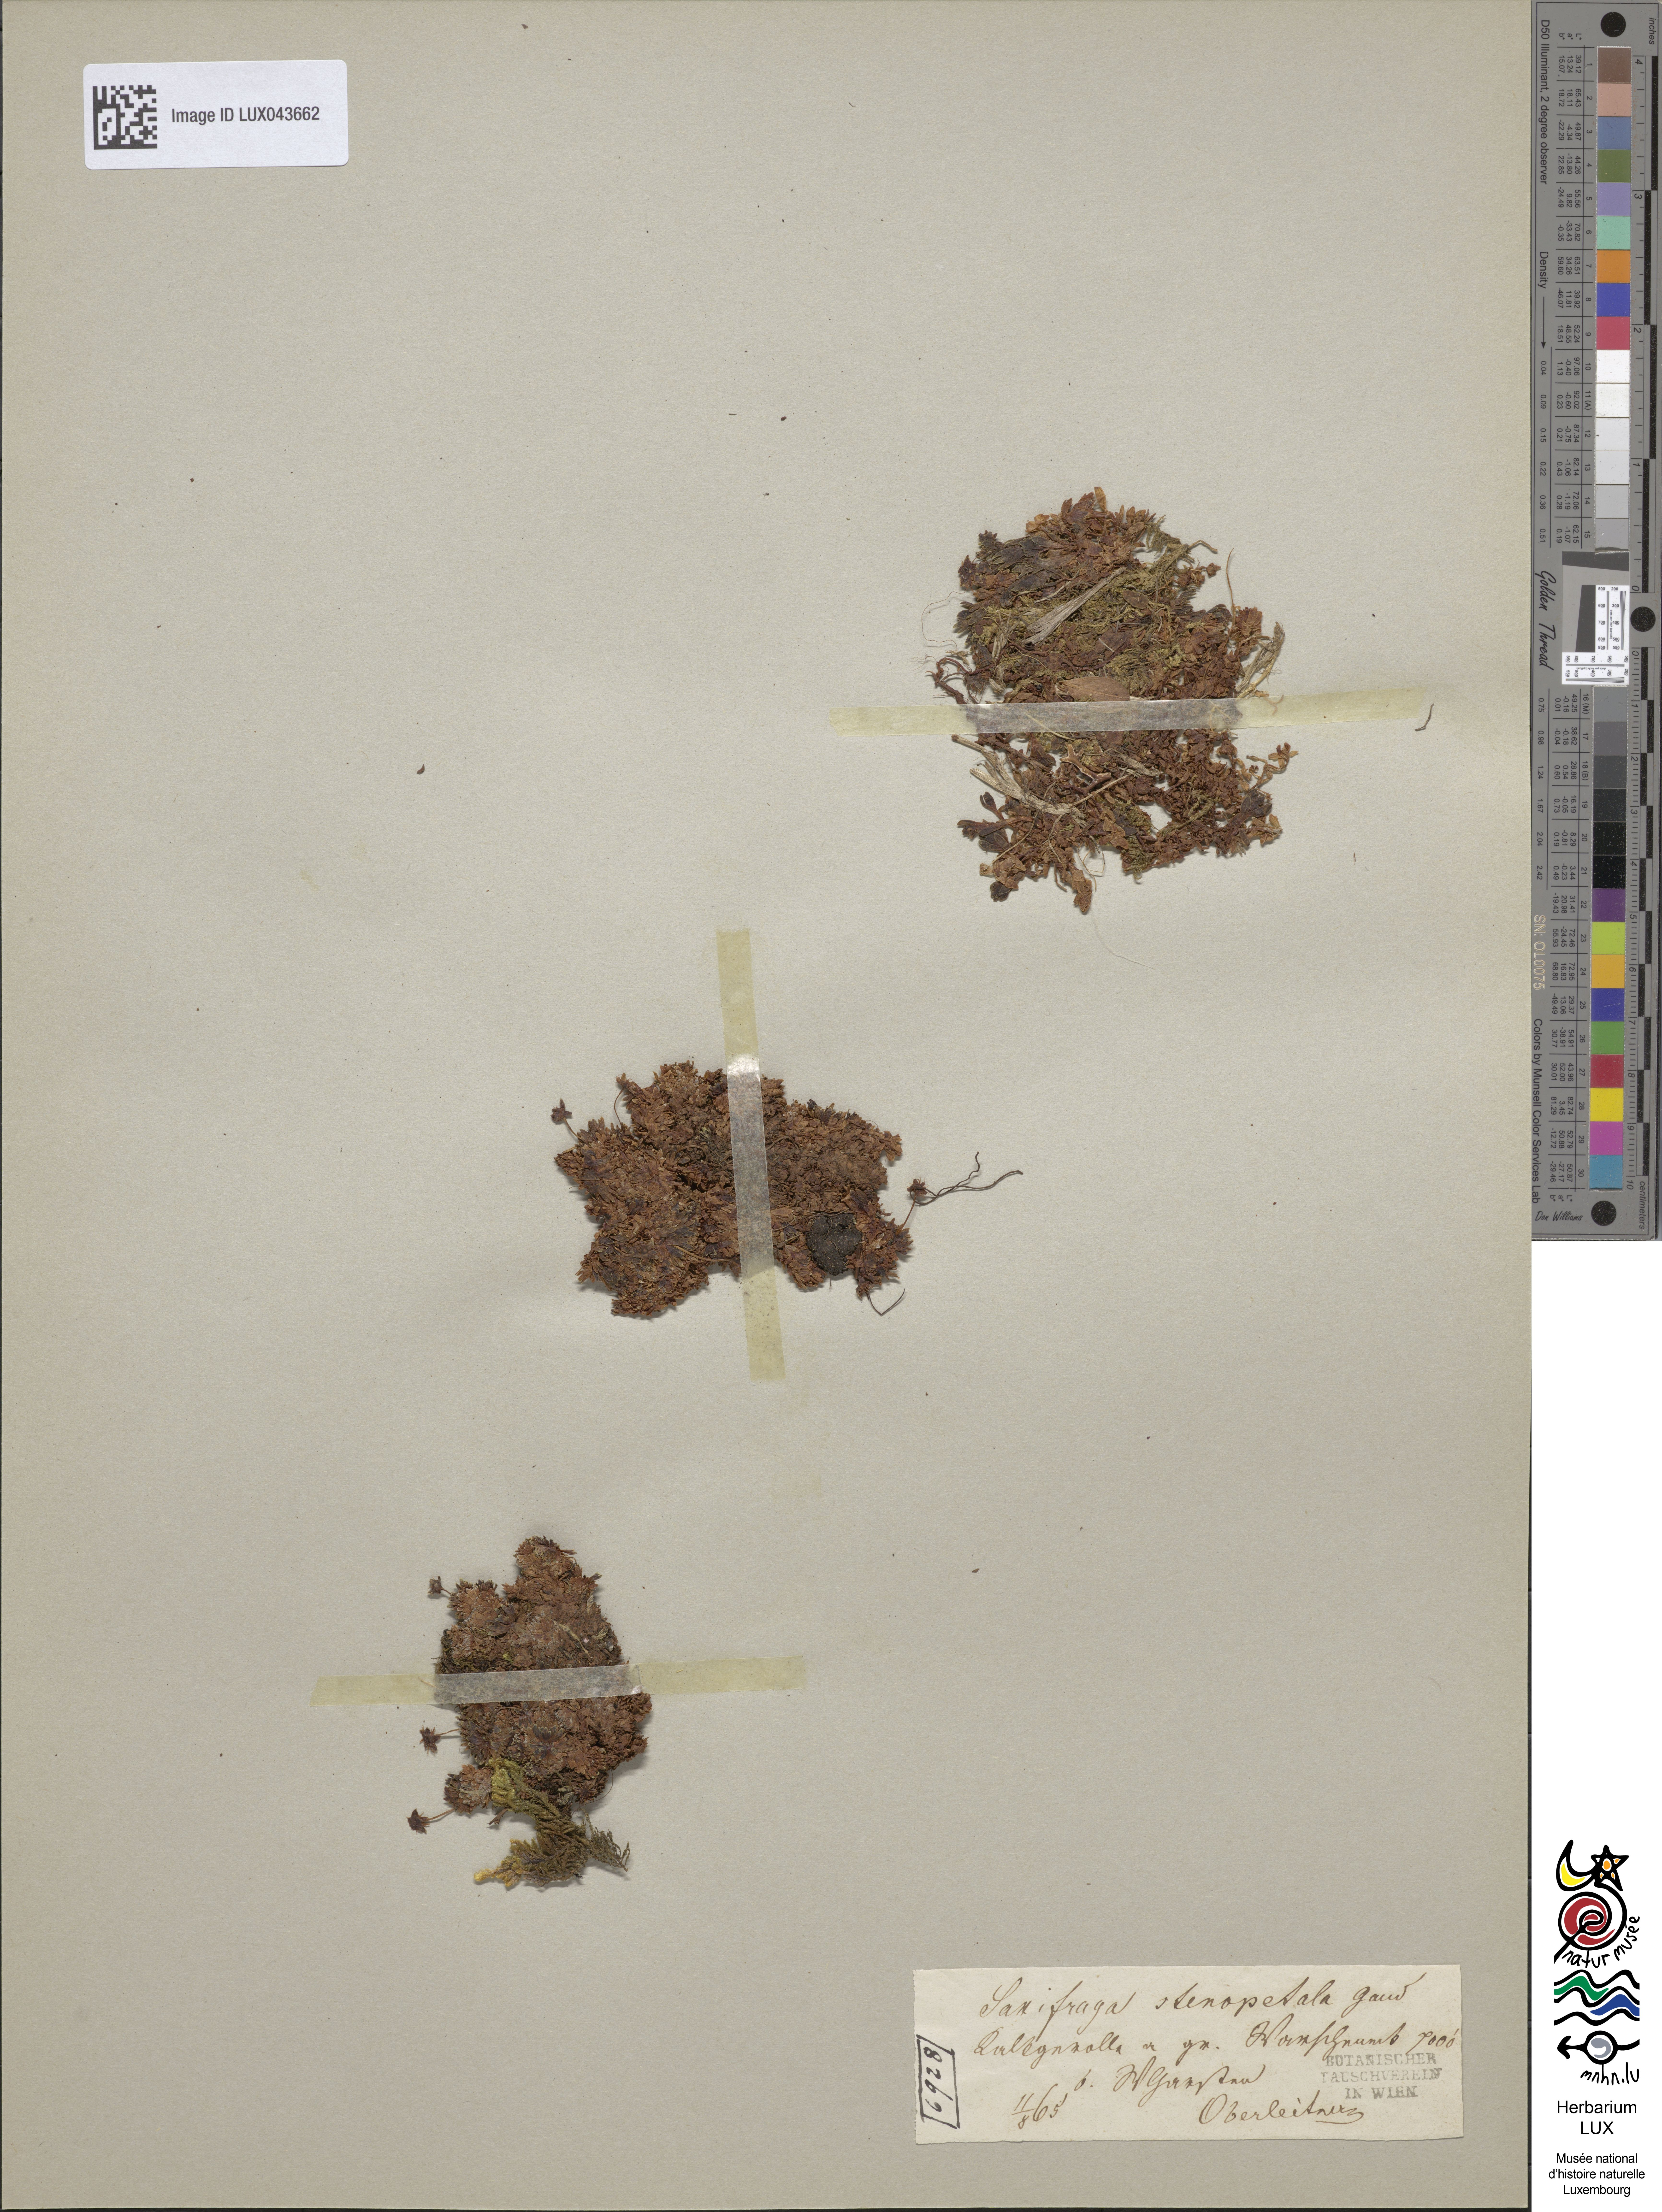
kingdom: Plantae
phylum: Tracheophyta
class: Magnoliopsida
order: Saxifragales
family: Saxifragaceae
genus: Saxifraga
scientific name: Saxifraga aphylla
